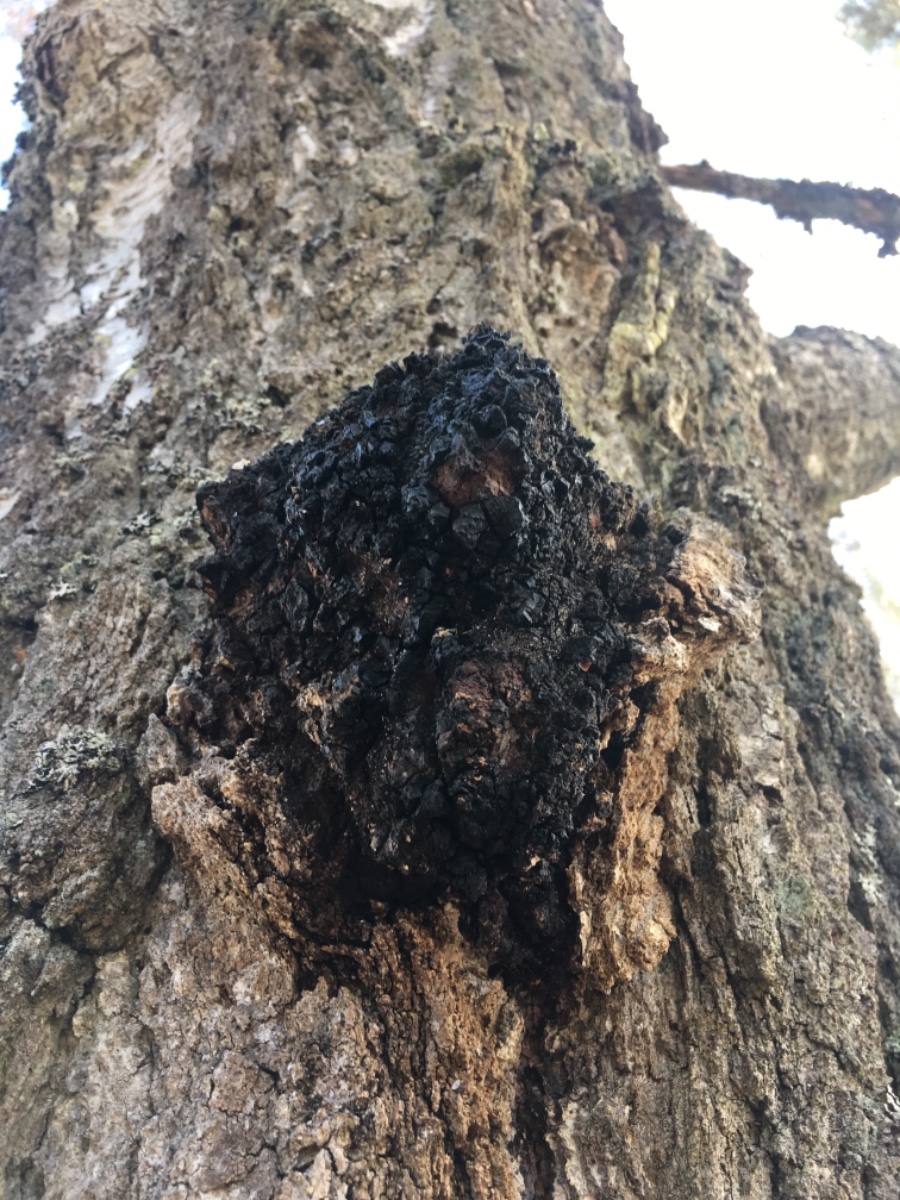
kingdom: Fungi
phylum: Basidiomycota
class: Agaricomycetes
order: Hymenochaetales
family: Hymenochaetaceae
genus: Inonotus
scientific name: Inonotus obliquus
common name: birke-spejlporesvamp
